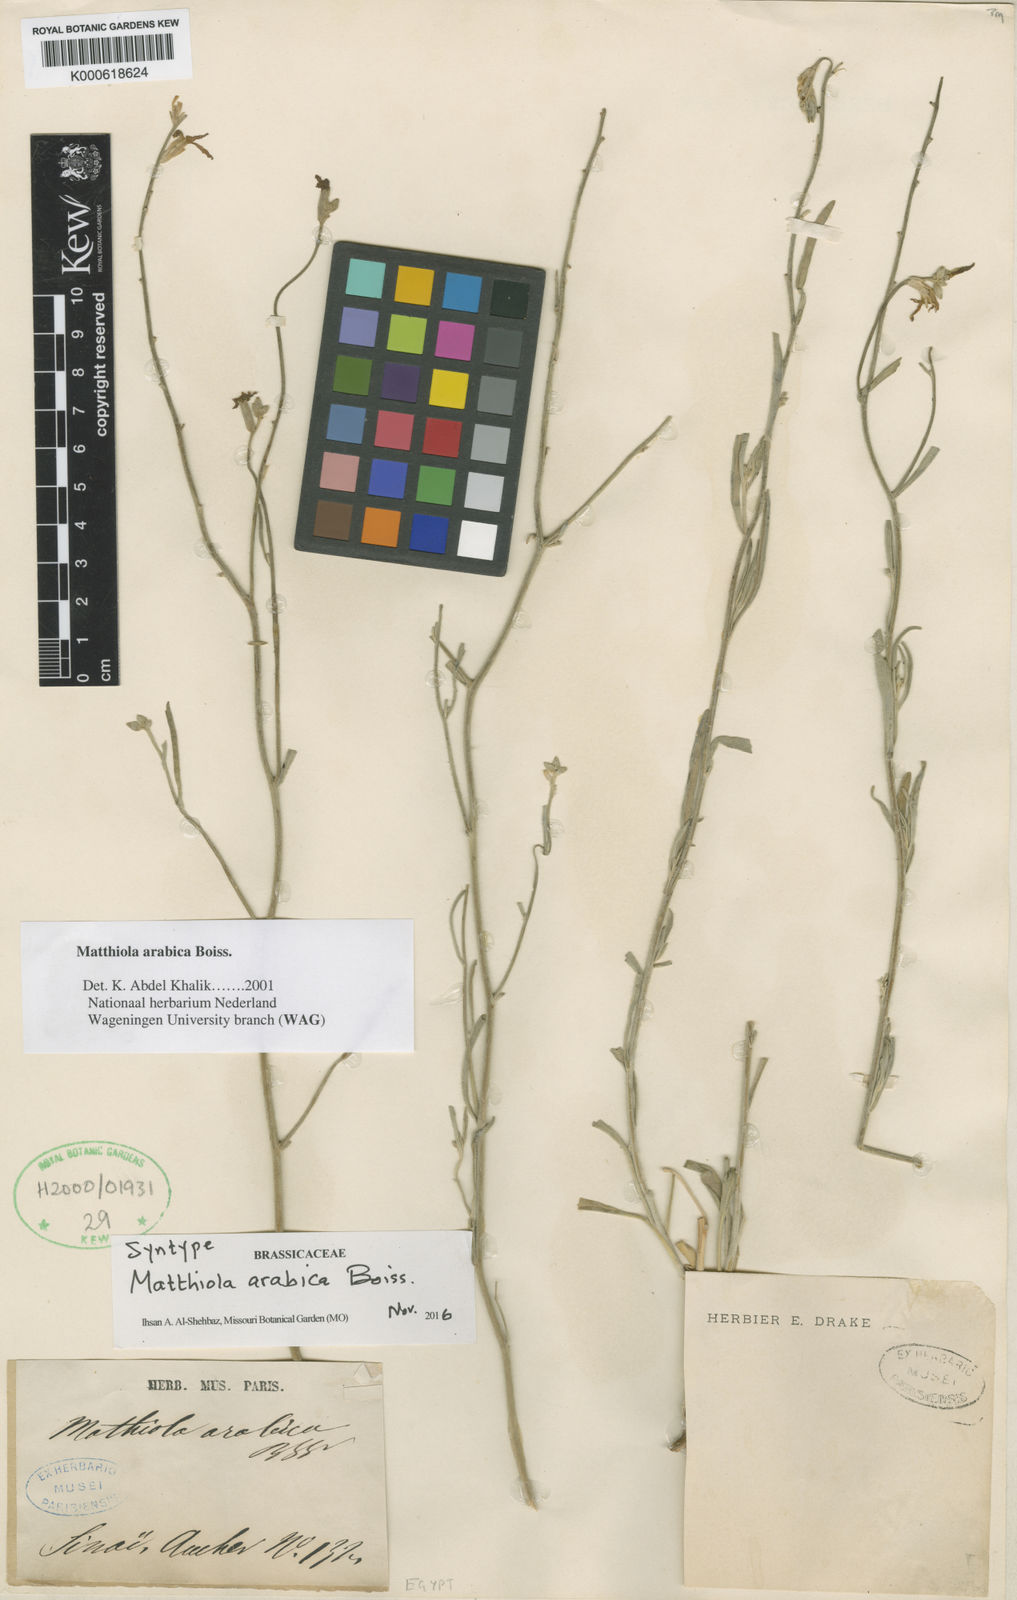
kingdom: Plantae
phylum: Tracheophyta
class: Magnoliopsida
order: Brassicales
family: Brassicaceae
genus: Matthiola
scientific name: Matthiola arabica
